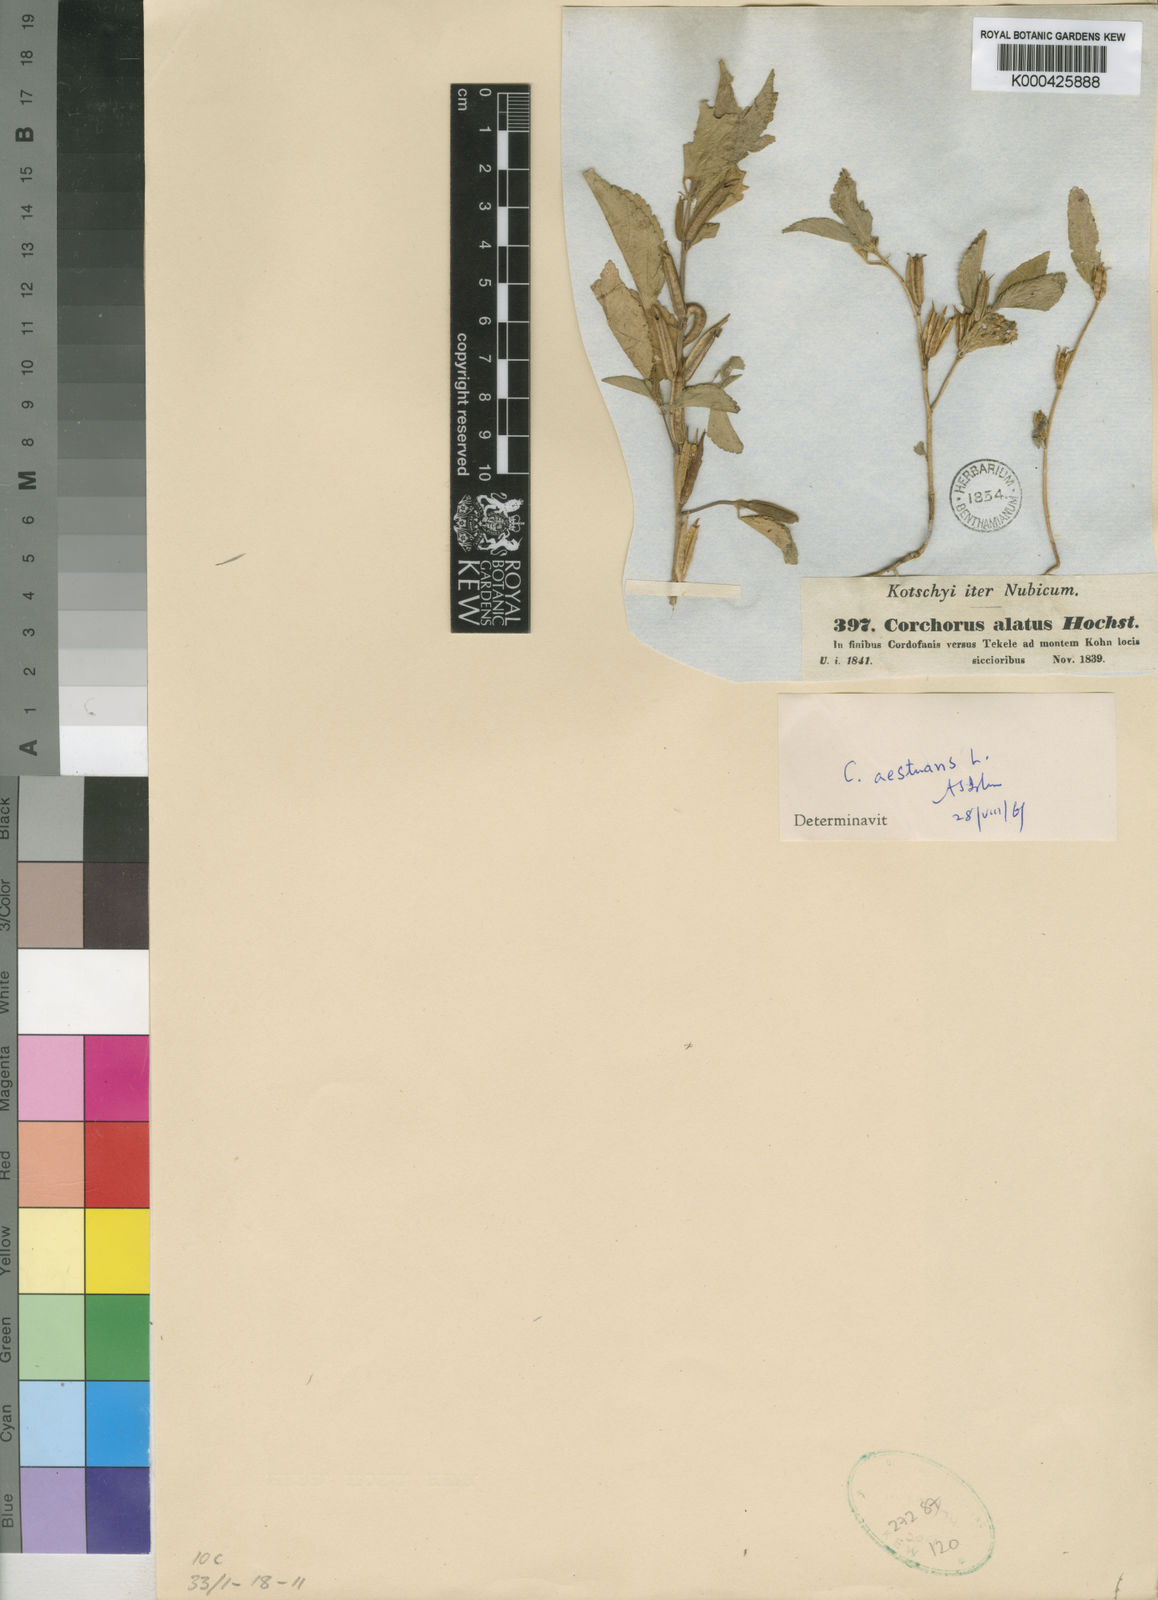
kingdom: Plantae
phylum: Tracheophyta
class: Magnoliopsida
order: Malvales
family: Malvaceae
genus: Corchorus
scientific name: Corchorus aestuans
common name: Jute
